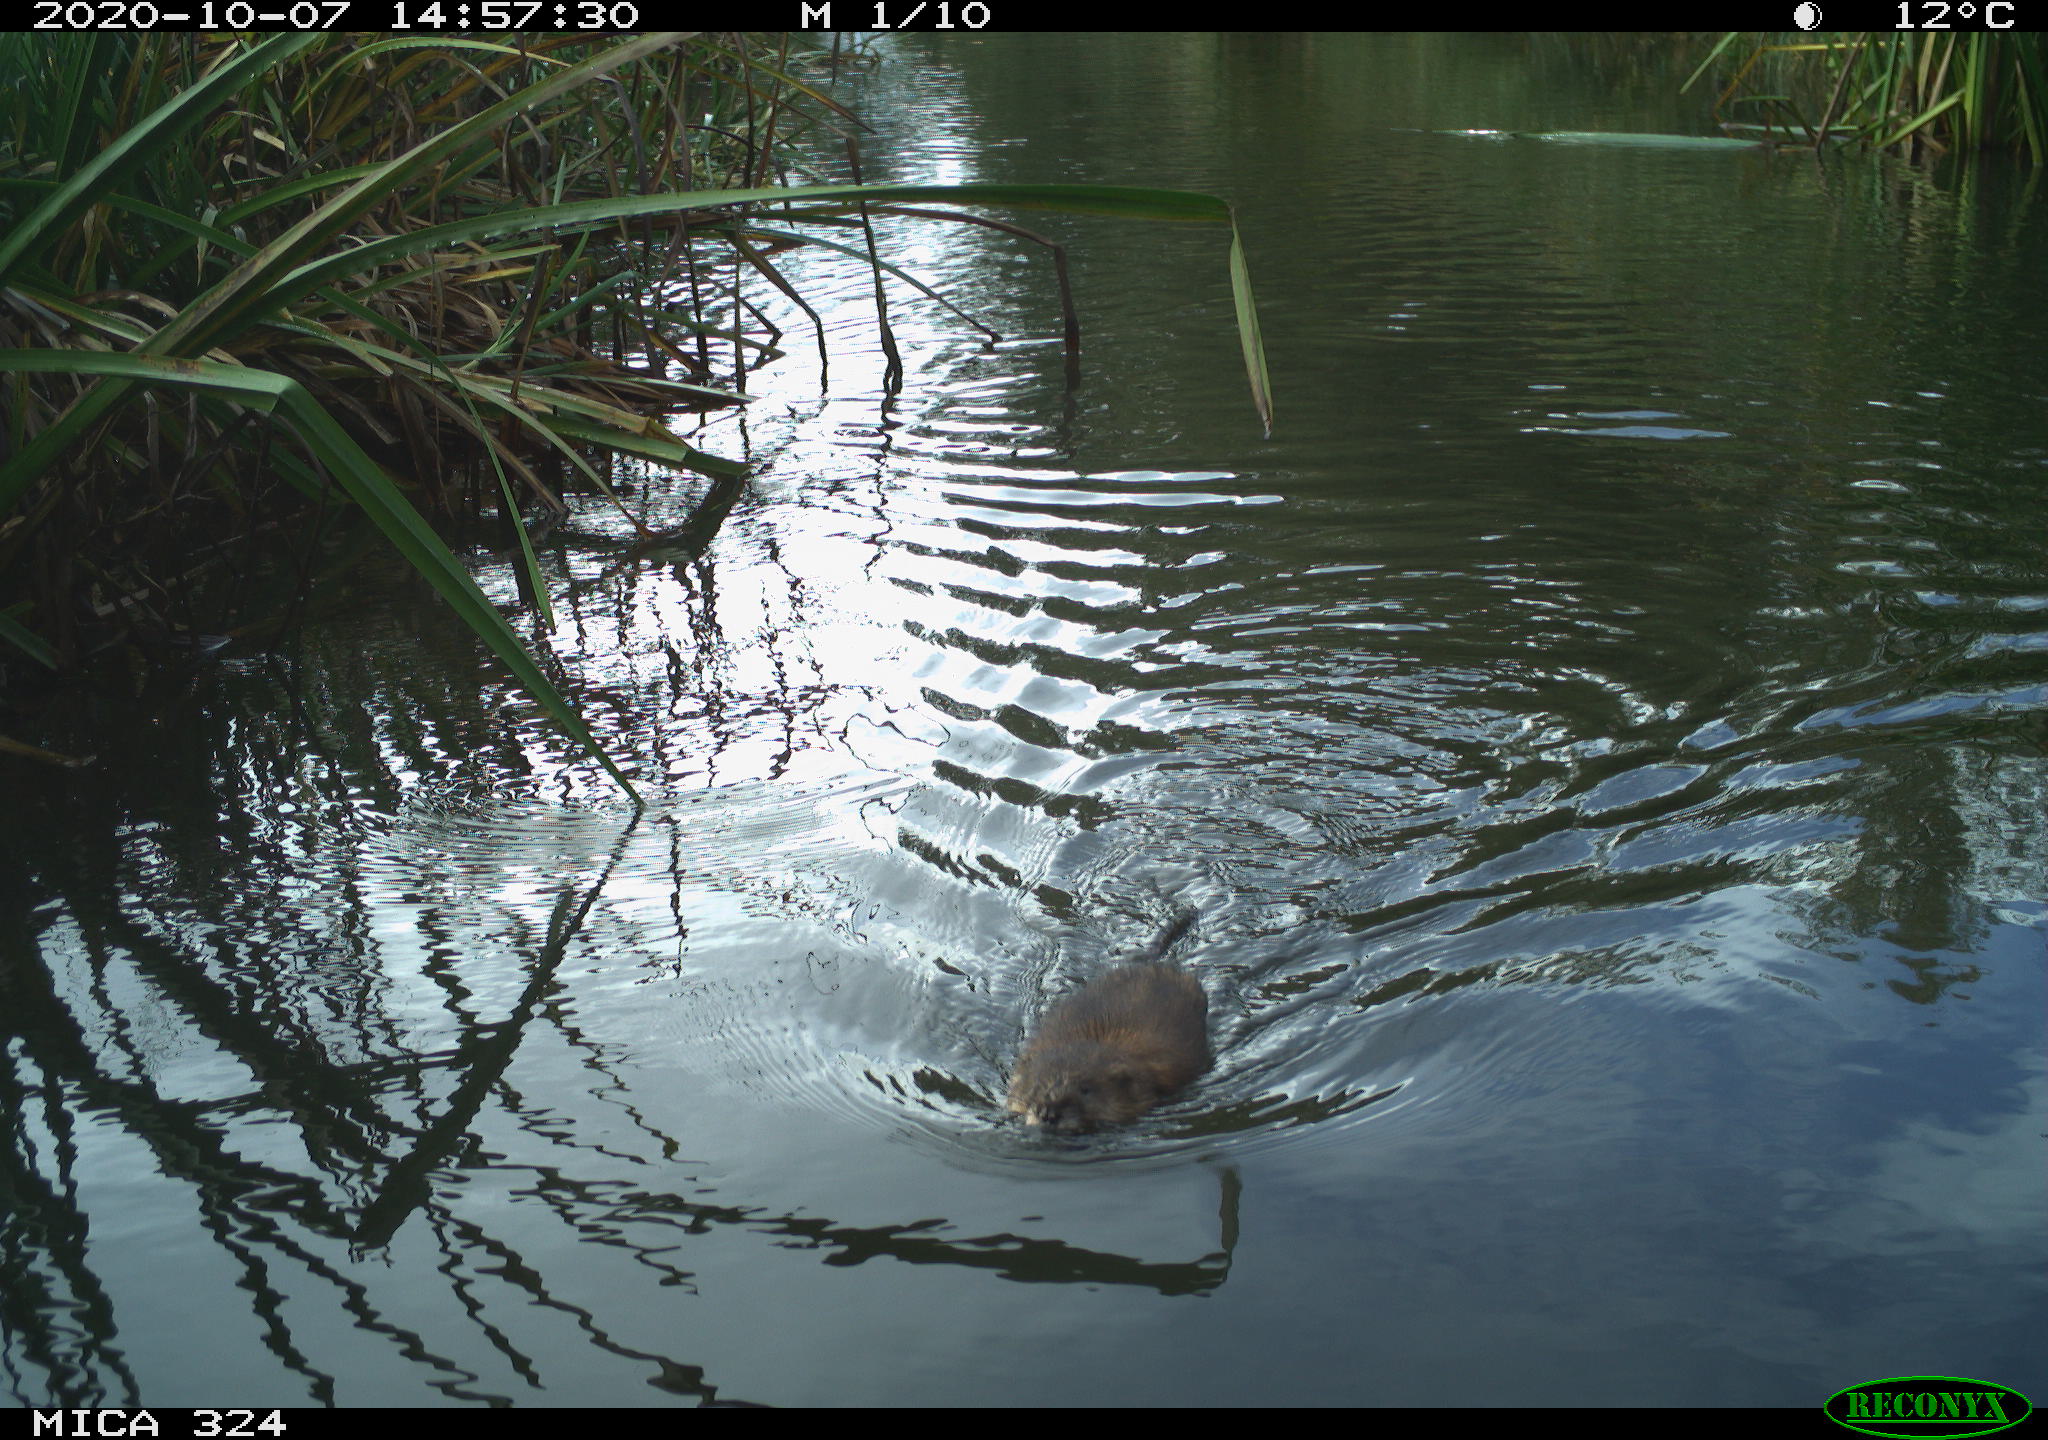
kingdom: Animalia
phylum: Chordata
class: Mammalia
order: Rodentia
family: Cricetidae
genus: Ondatra
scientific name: Ondatra zibethicus
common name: Muskrat
